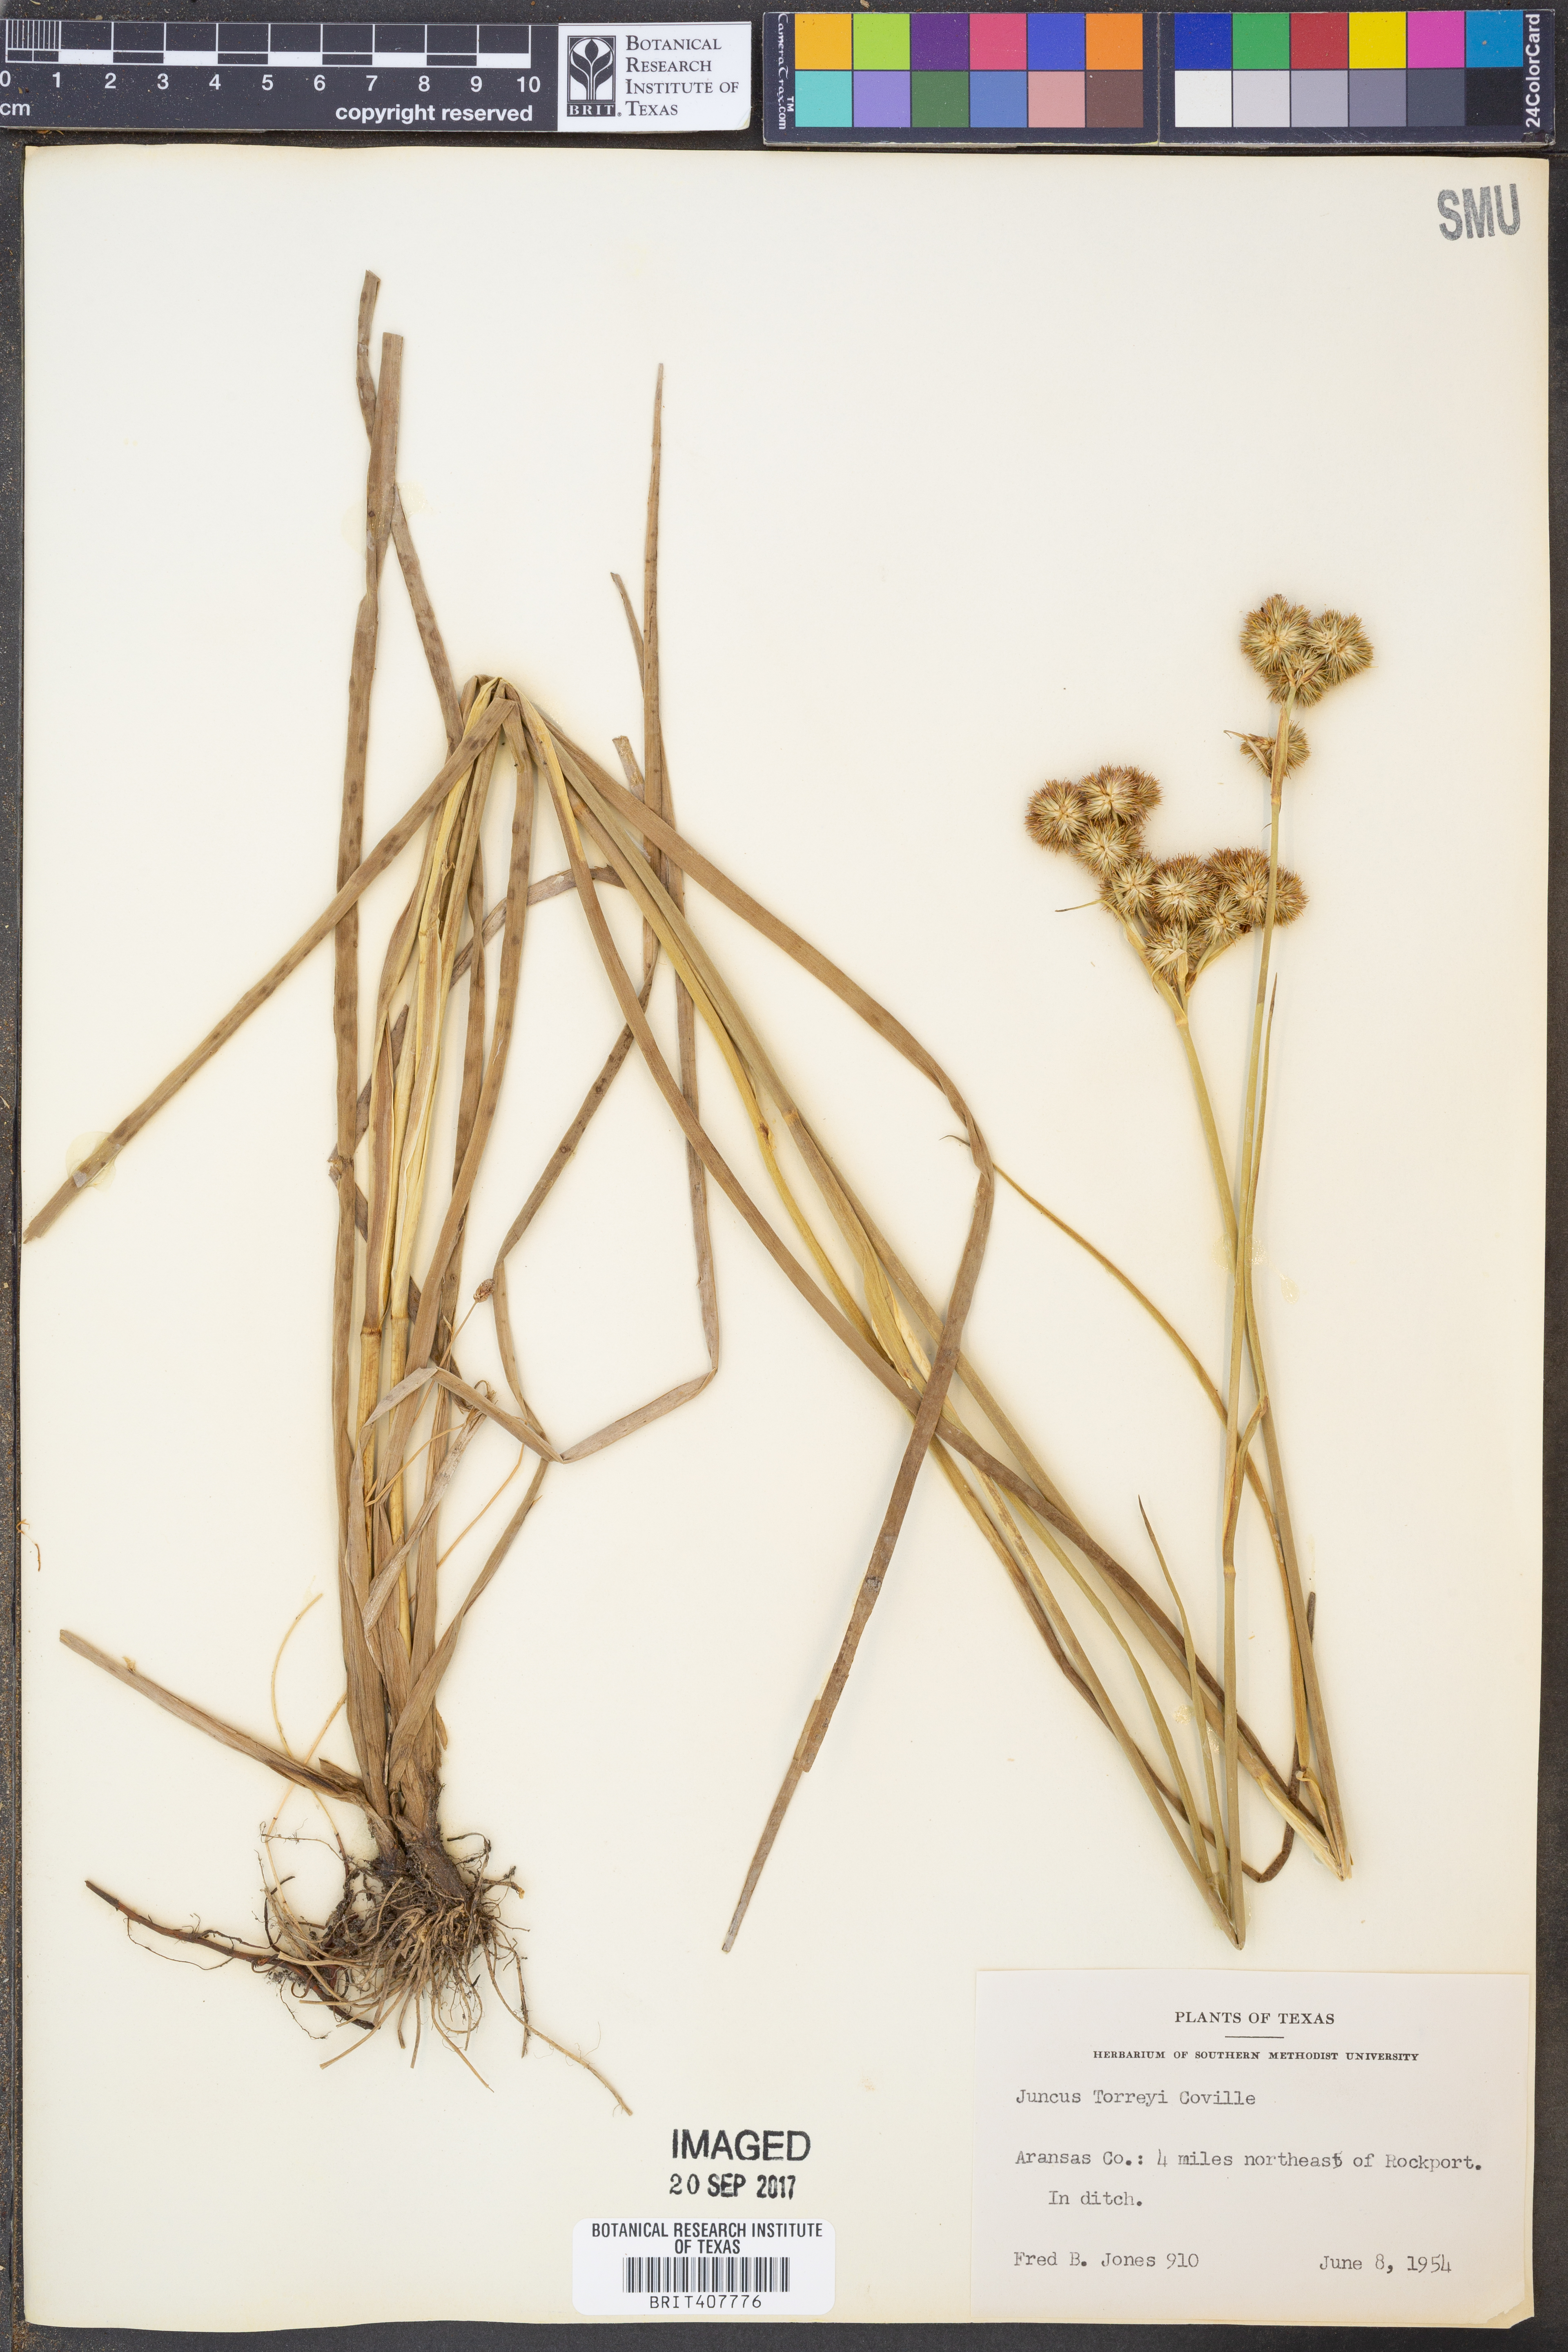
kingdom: Plantae
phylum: Tracheophyta
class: Liliopsida
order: Poales
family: Juncaceae
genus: Juncus
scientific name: Juncus torreyi
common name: Torrey's rush
